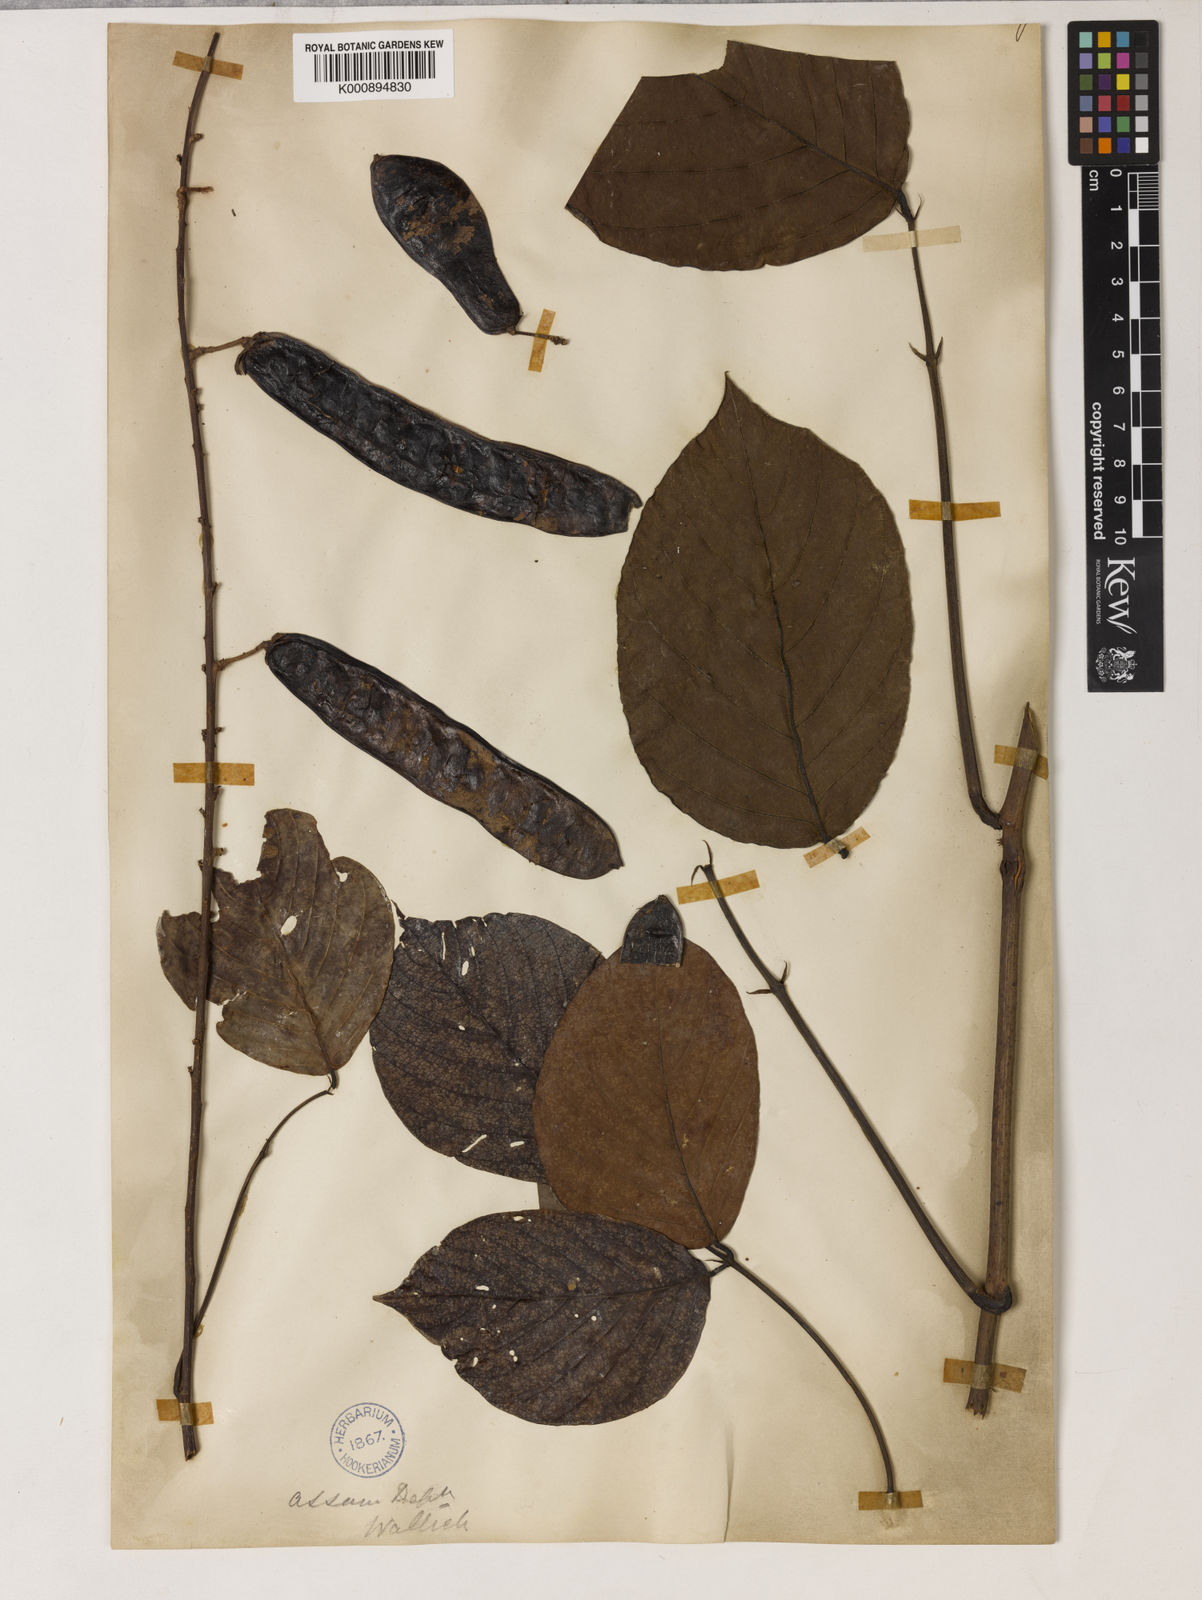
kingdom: Plantae
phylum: Tracheophyta
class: Magnoliopsida
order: Fabales
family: Fabaceae
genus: Mastersia
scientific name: Mastersia assamica
